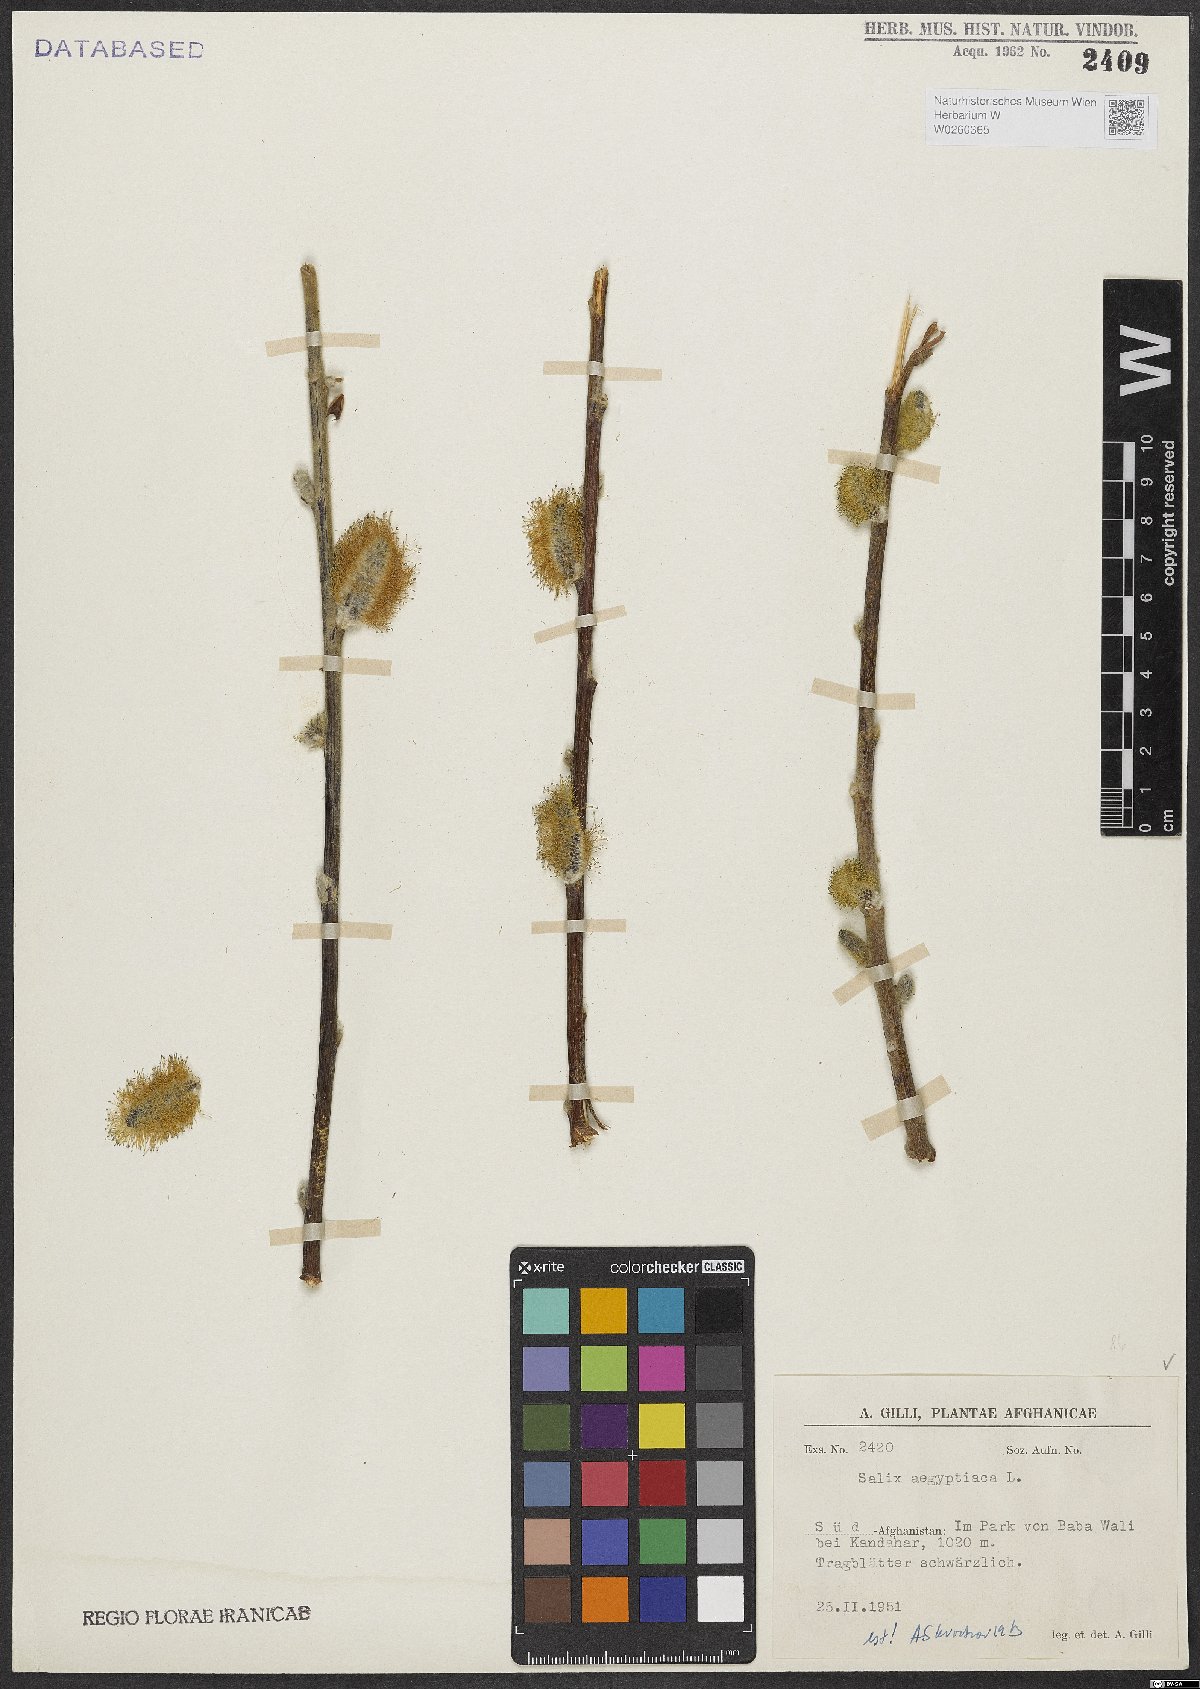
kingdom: Plantae
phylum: Tracheophyta
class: Magnoliopsida
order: Malpighiales
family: Salicaceae
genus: Salix
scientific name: Salix aegyptiaca
